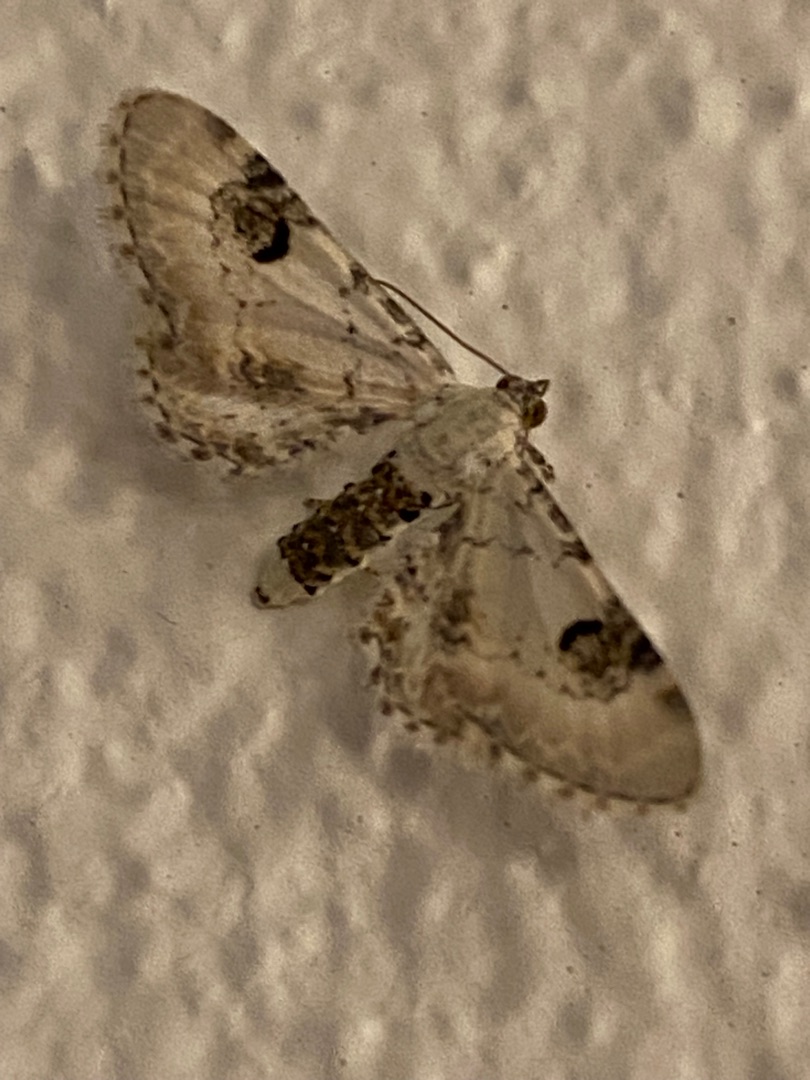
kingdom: Animalia
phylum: Arthropoda
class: Insecta
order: Lepidoptera
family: Geometridae
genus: Eupithecia
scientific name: Eupithecia centaureata
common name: Hvid dværgmåler
